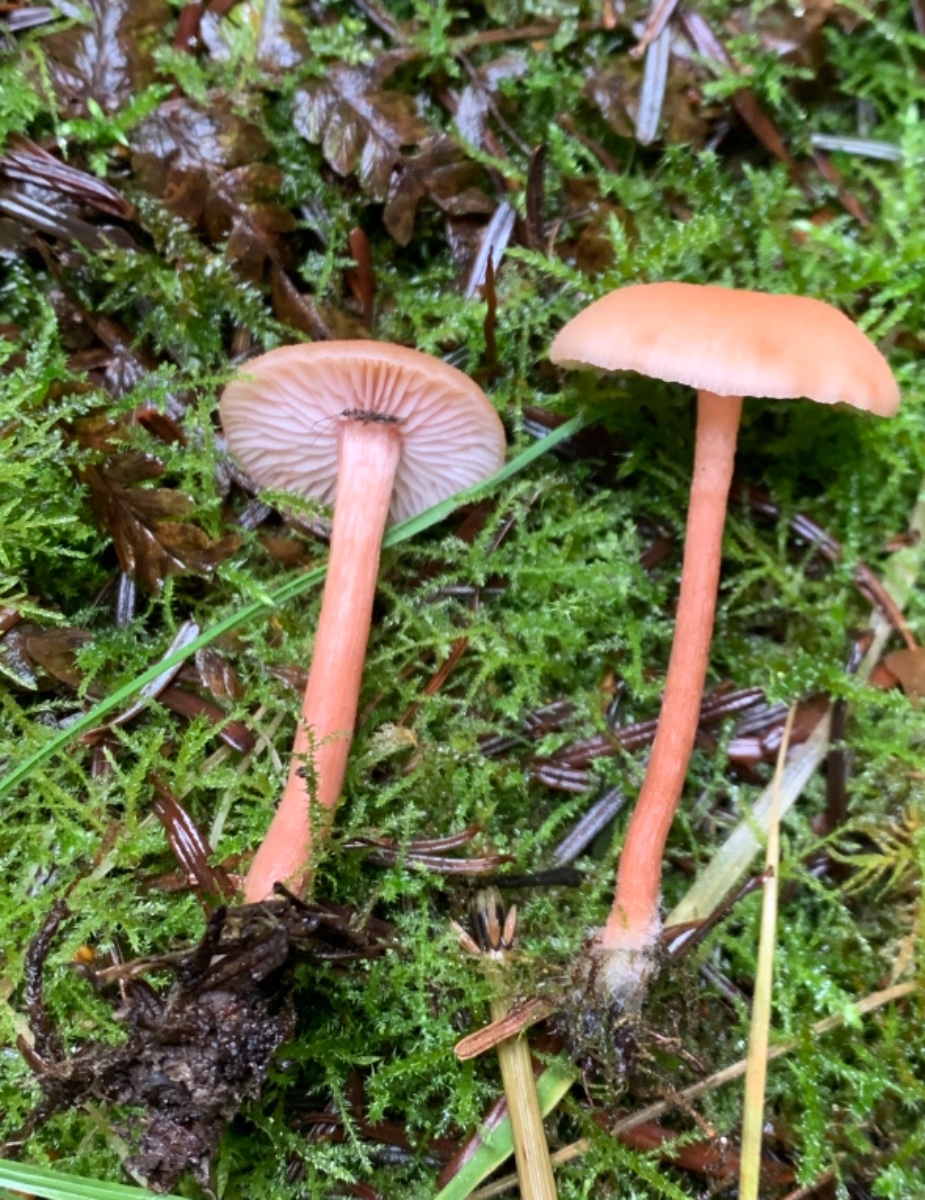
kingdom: Fungi
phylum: Basidiomycota
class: Agaricomycetes
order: Agaricales
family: Tricholomataceae
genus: Cystoderma
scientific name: Cystoderma amianthinum
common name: okkergul grynhat
